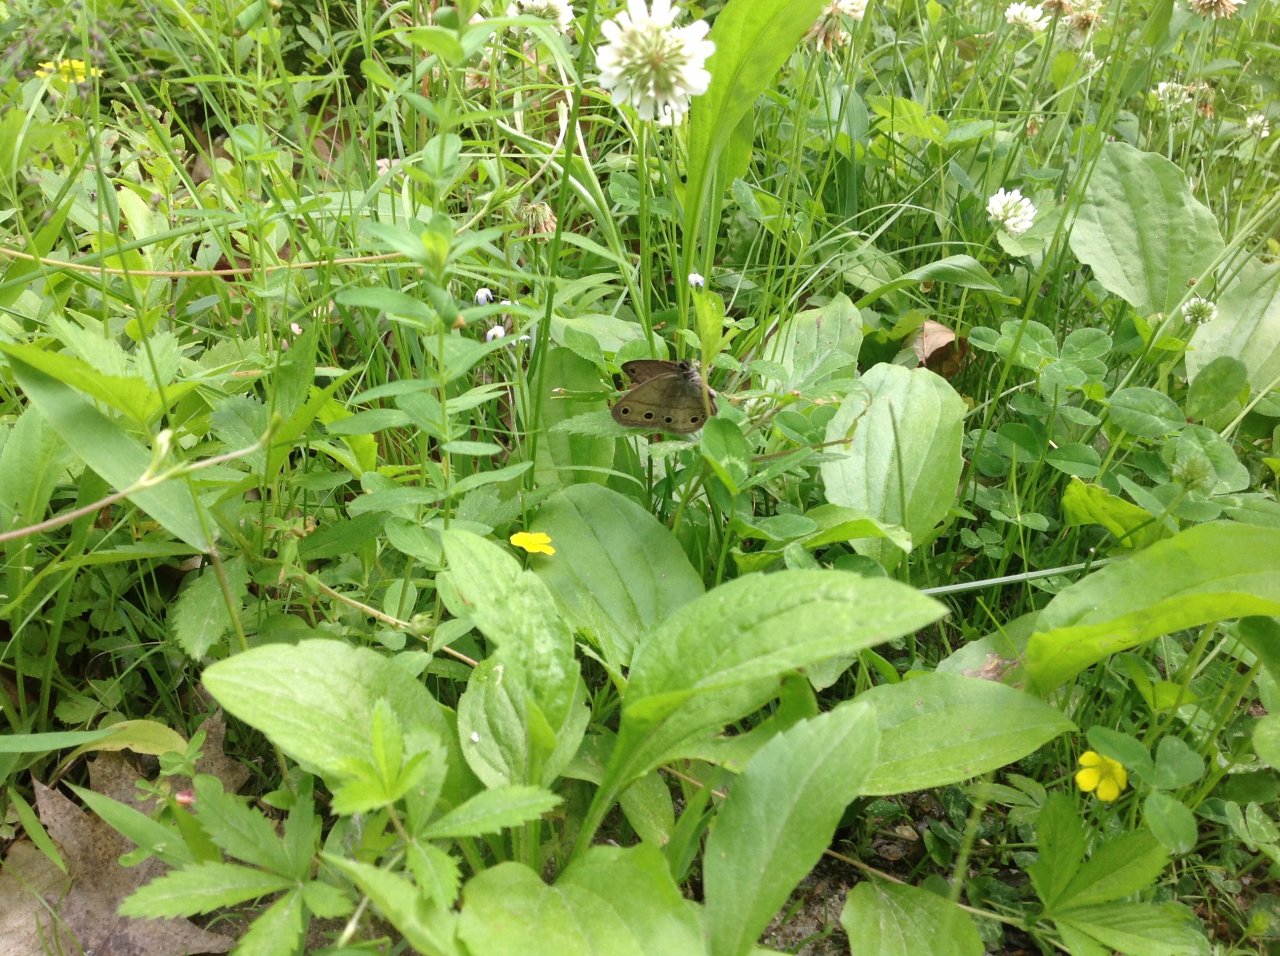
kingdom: Animalia
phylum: Arthropoda
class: Insecta
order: Lepidoptera
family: Nymphalidae
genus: Euptychia
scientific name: Euptychia cymela
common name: Little Wood Satyr
